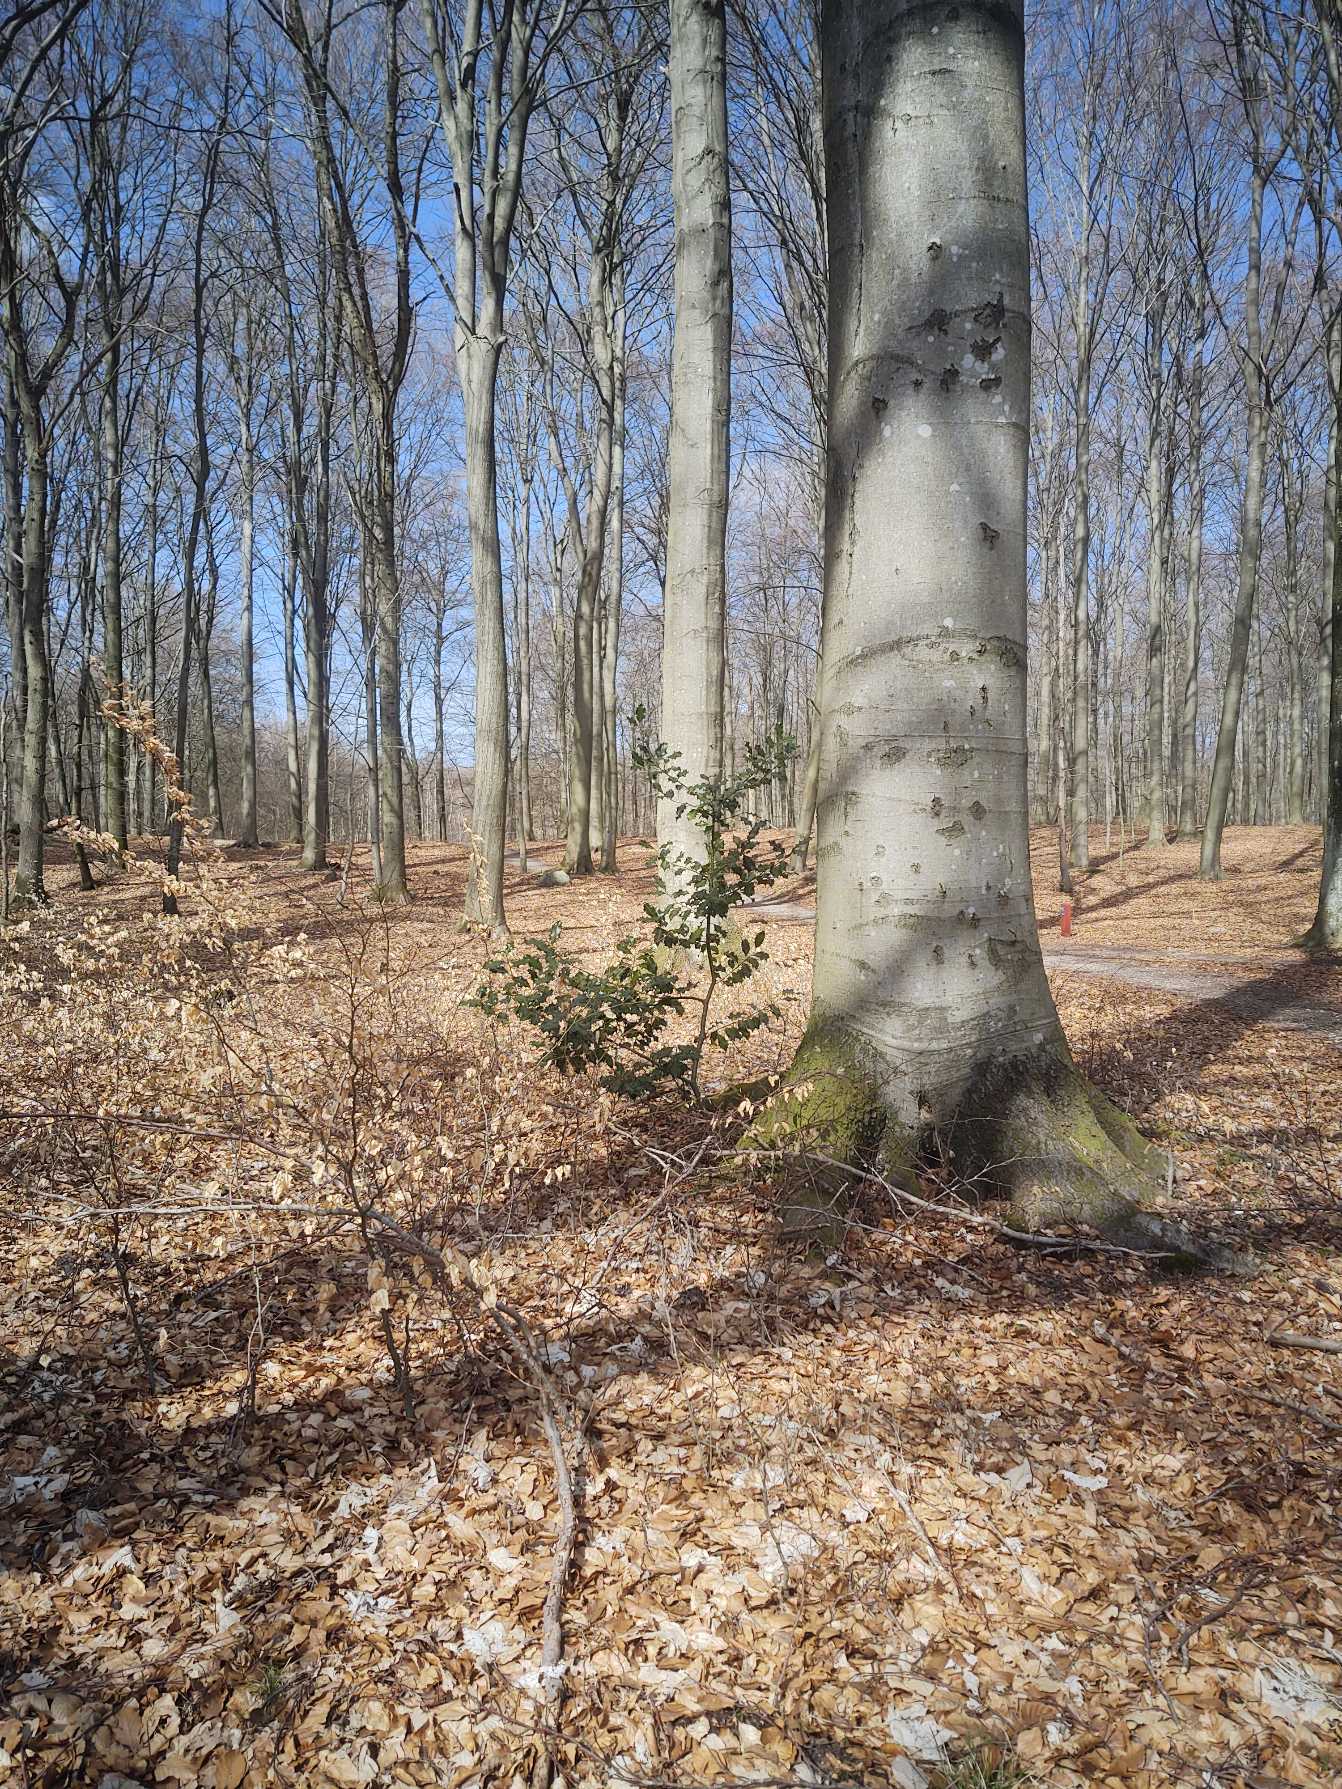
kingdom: Plantae
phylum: Tracheophyta
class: Magnoliopsida
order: Aquifoliales
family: Aquifoliaceae
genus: Ilex
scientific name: Ilex aquifolium
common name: Kristtorn
